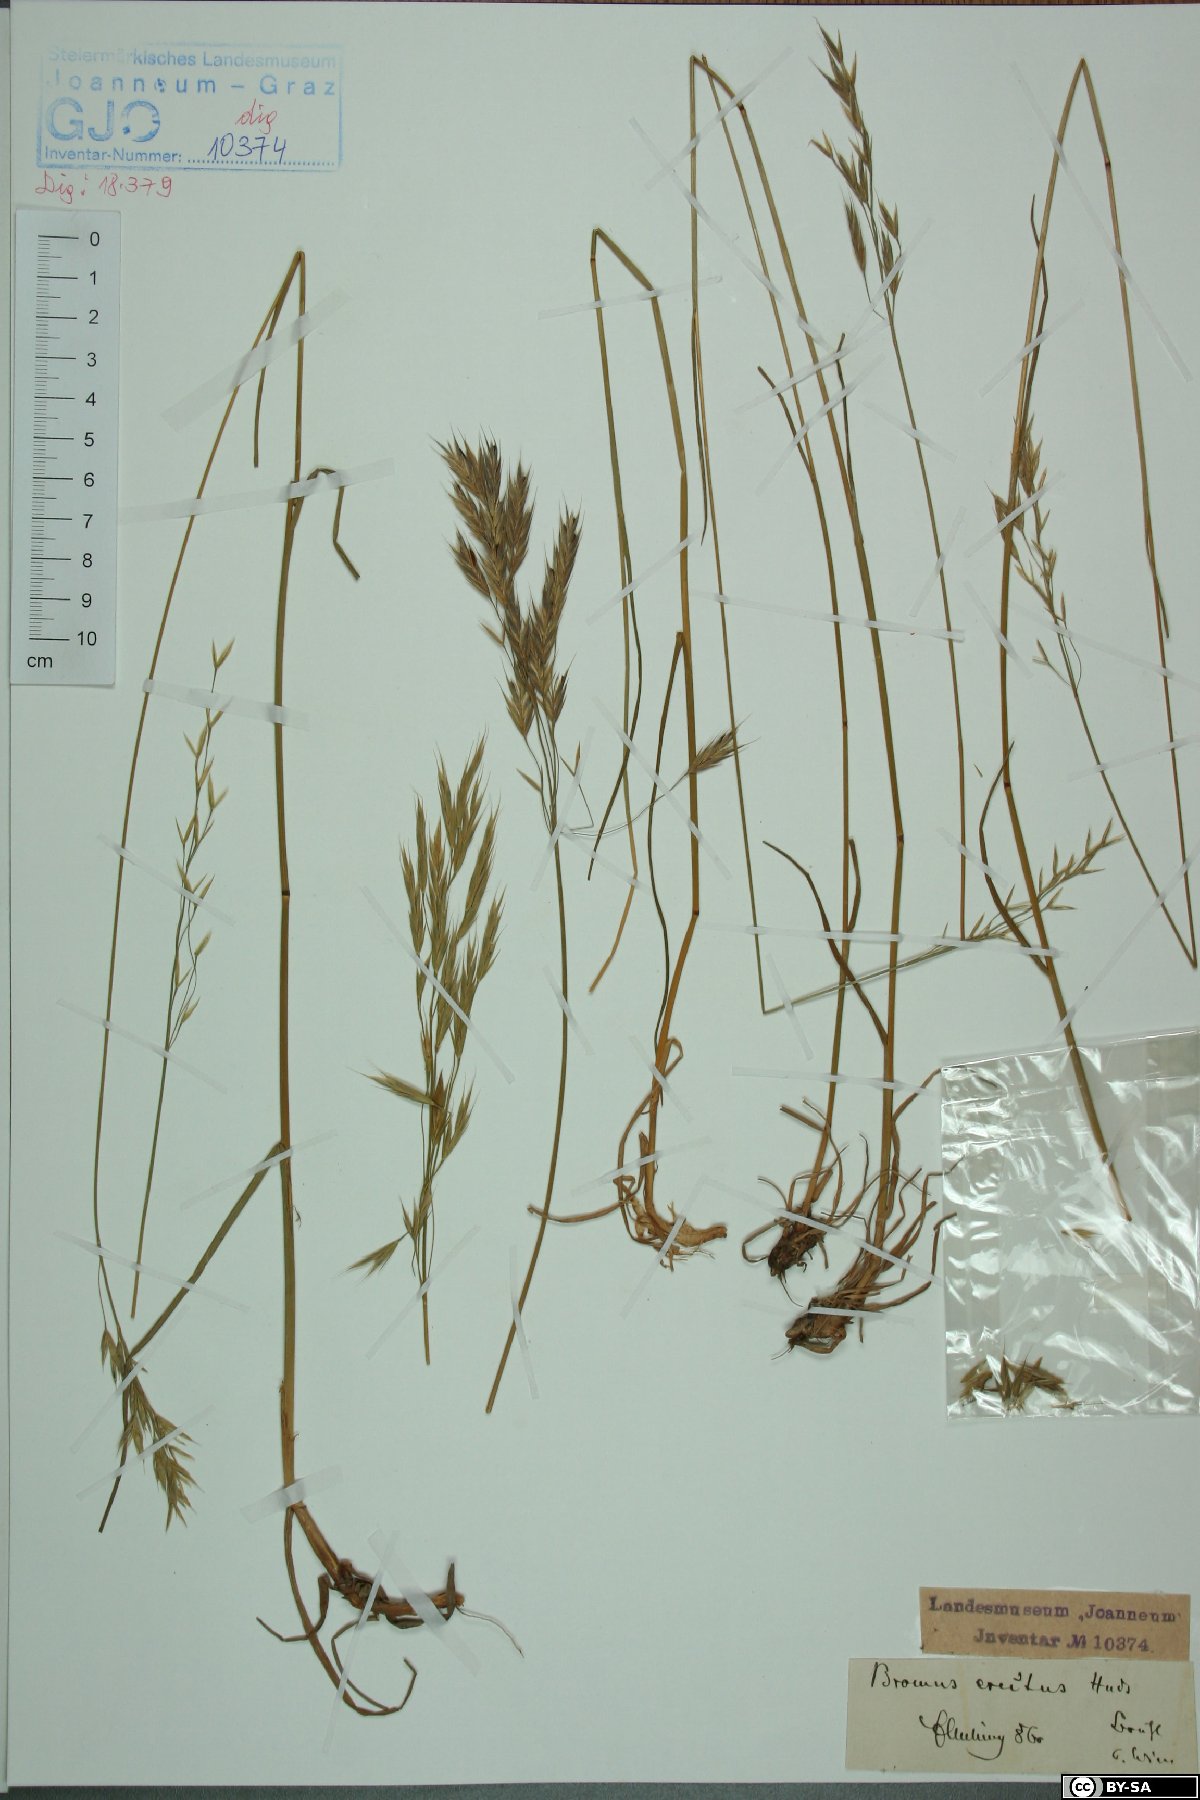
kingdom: Plantae
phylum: Tracheophyta
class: Liliopsida
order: Poales
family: Poaceae
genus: Bromus
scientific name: Bromus erectus
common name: Erect brome
